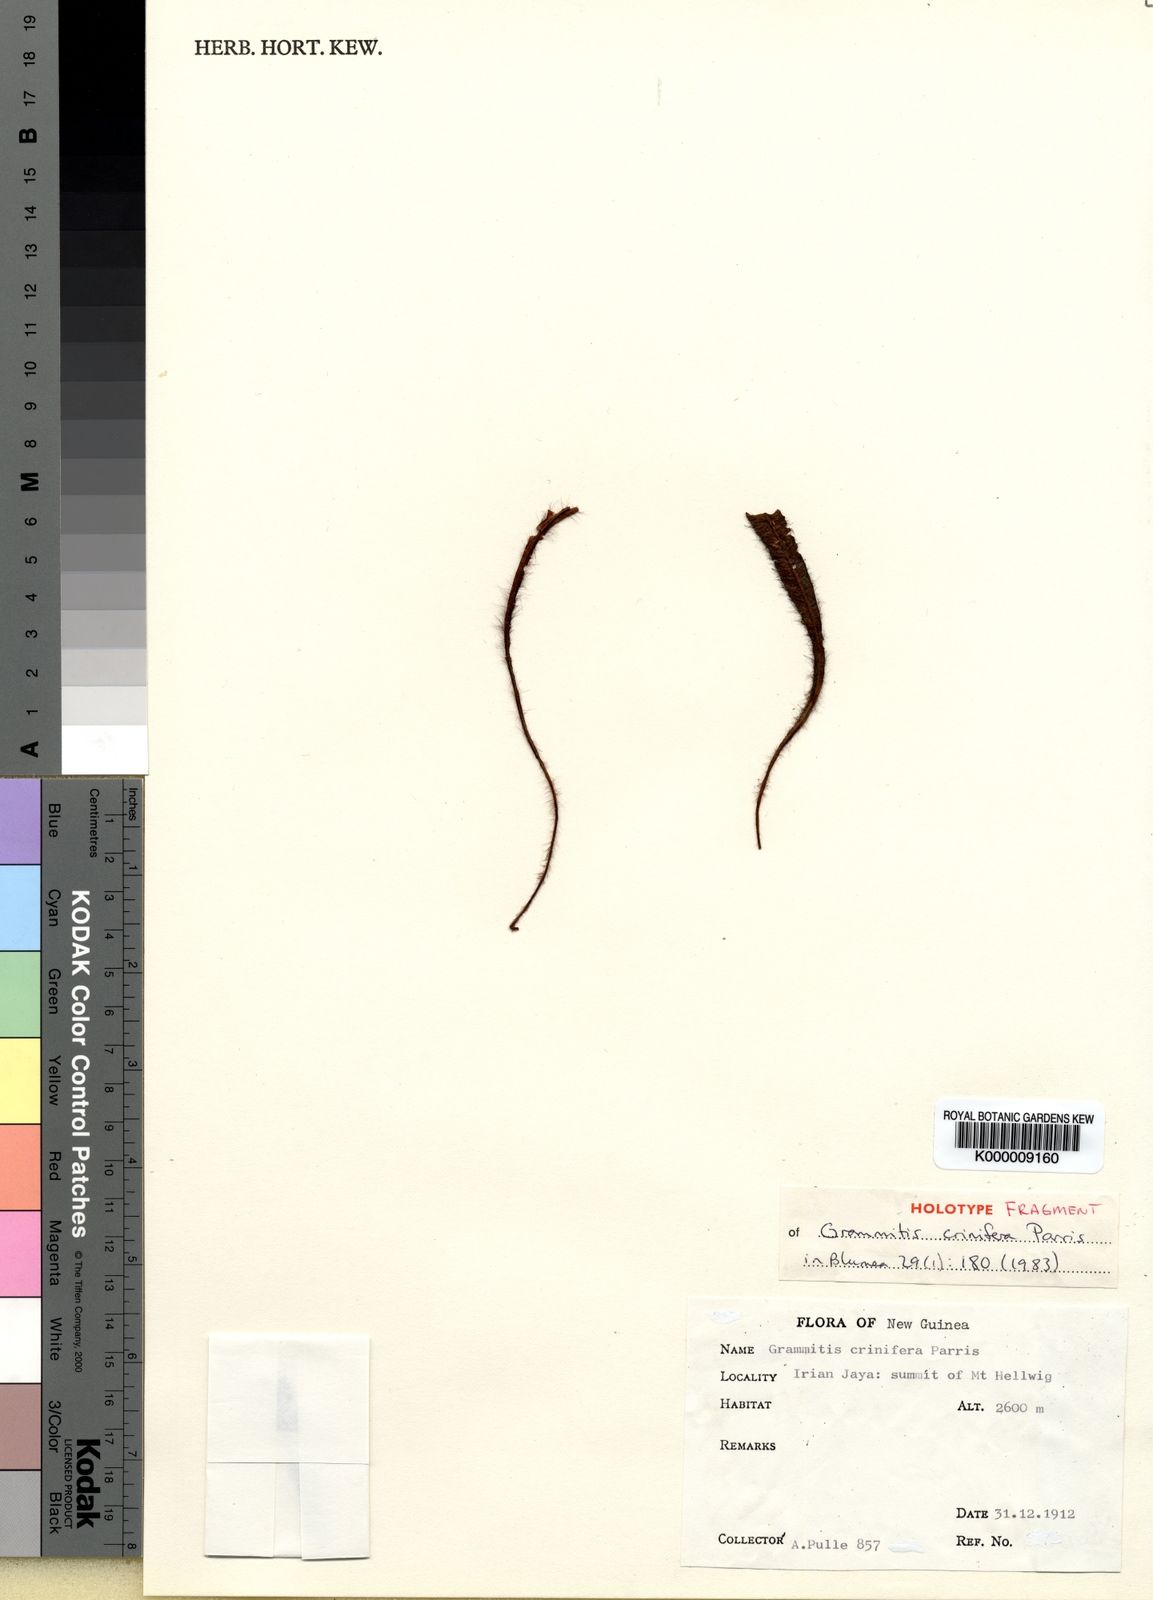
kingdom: Plantae
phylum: Tracheophyta
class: Polypodiopsida
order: Polypodiales
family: Polypodiaceae
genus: Oreogrammitis
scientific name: Oreogrammitis crinifera
